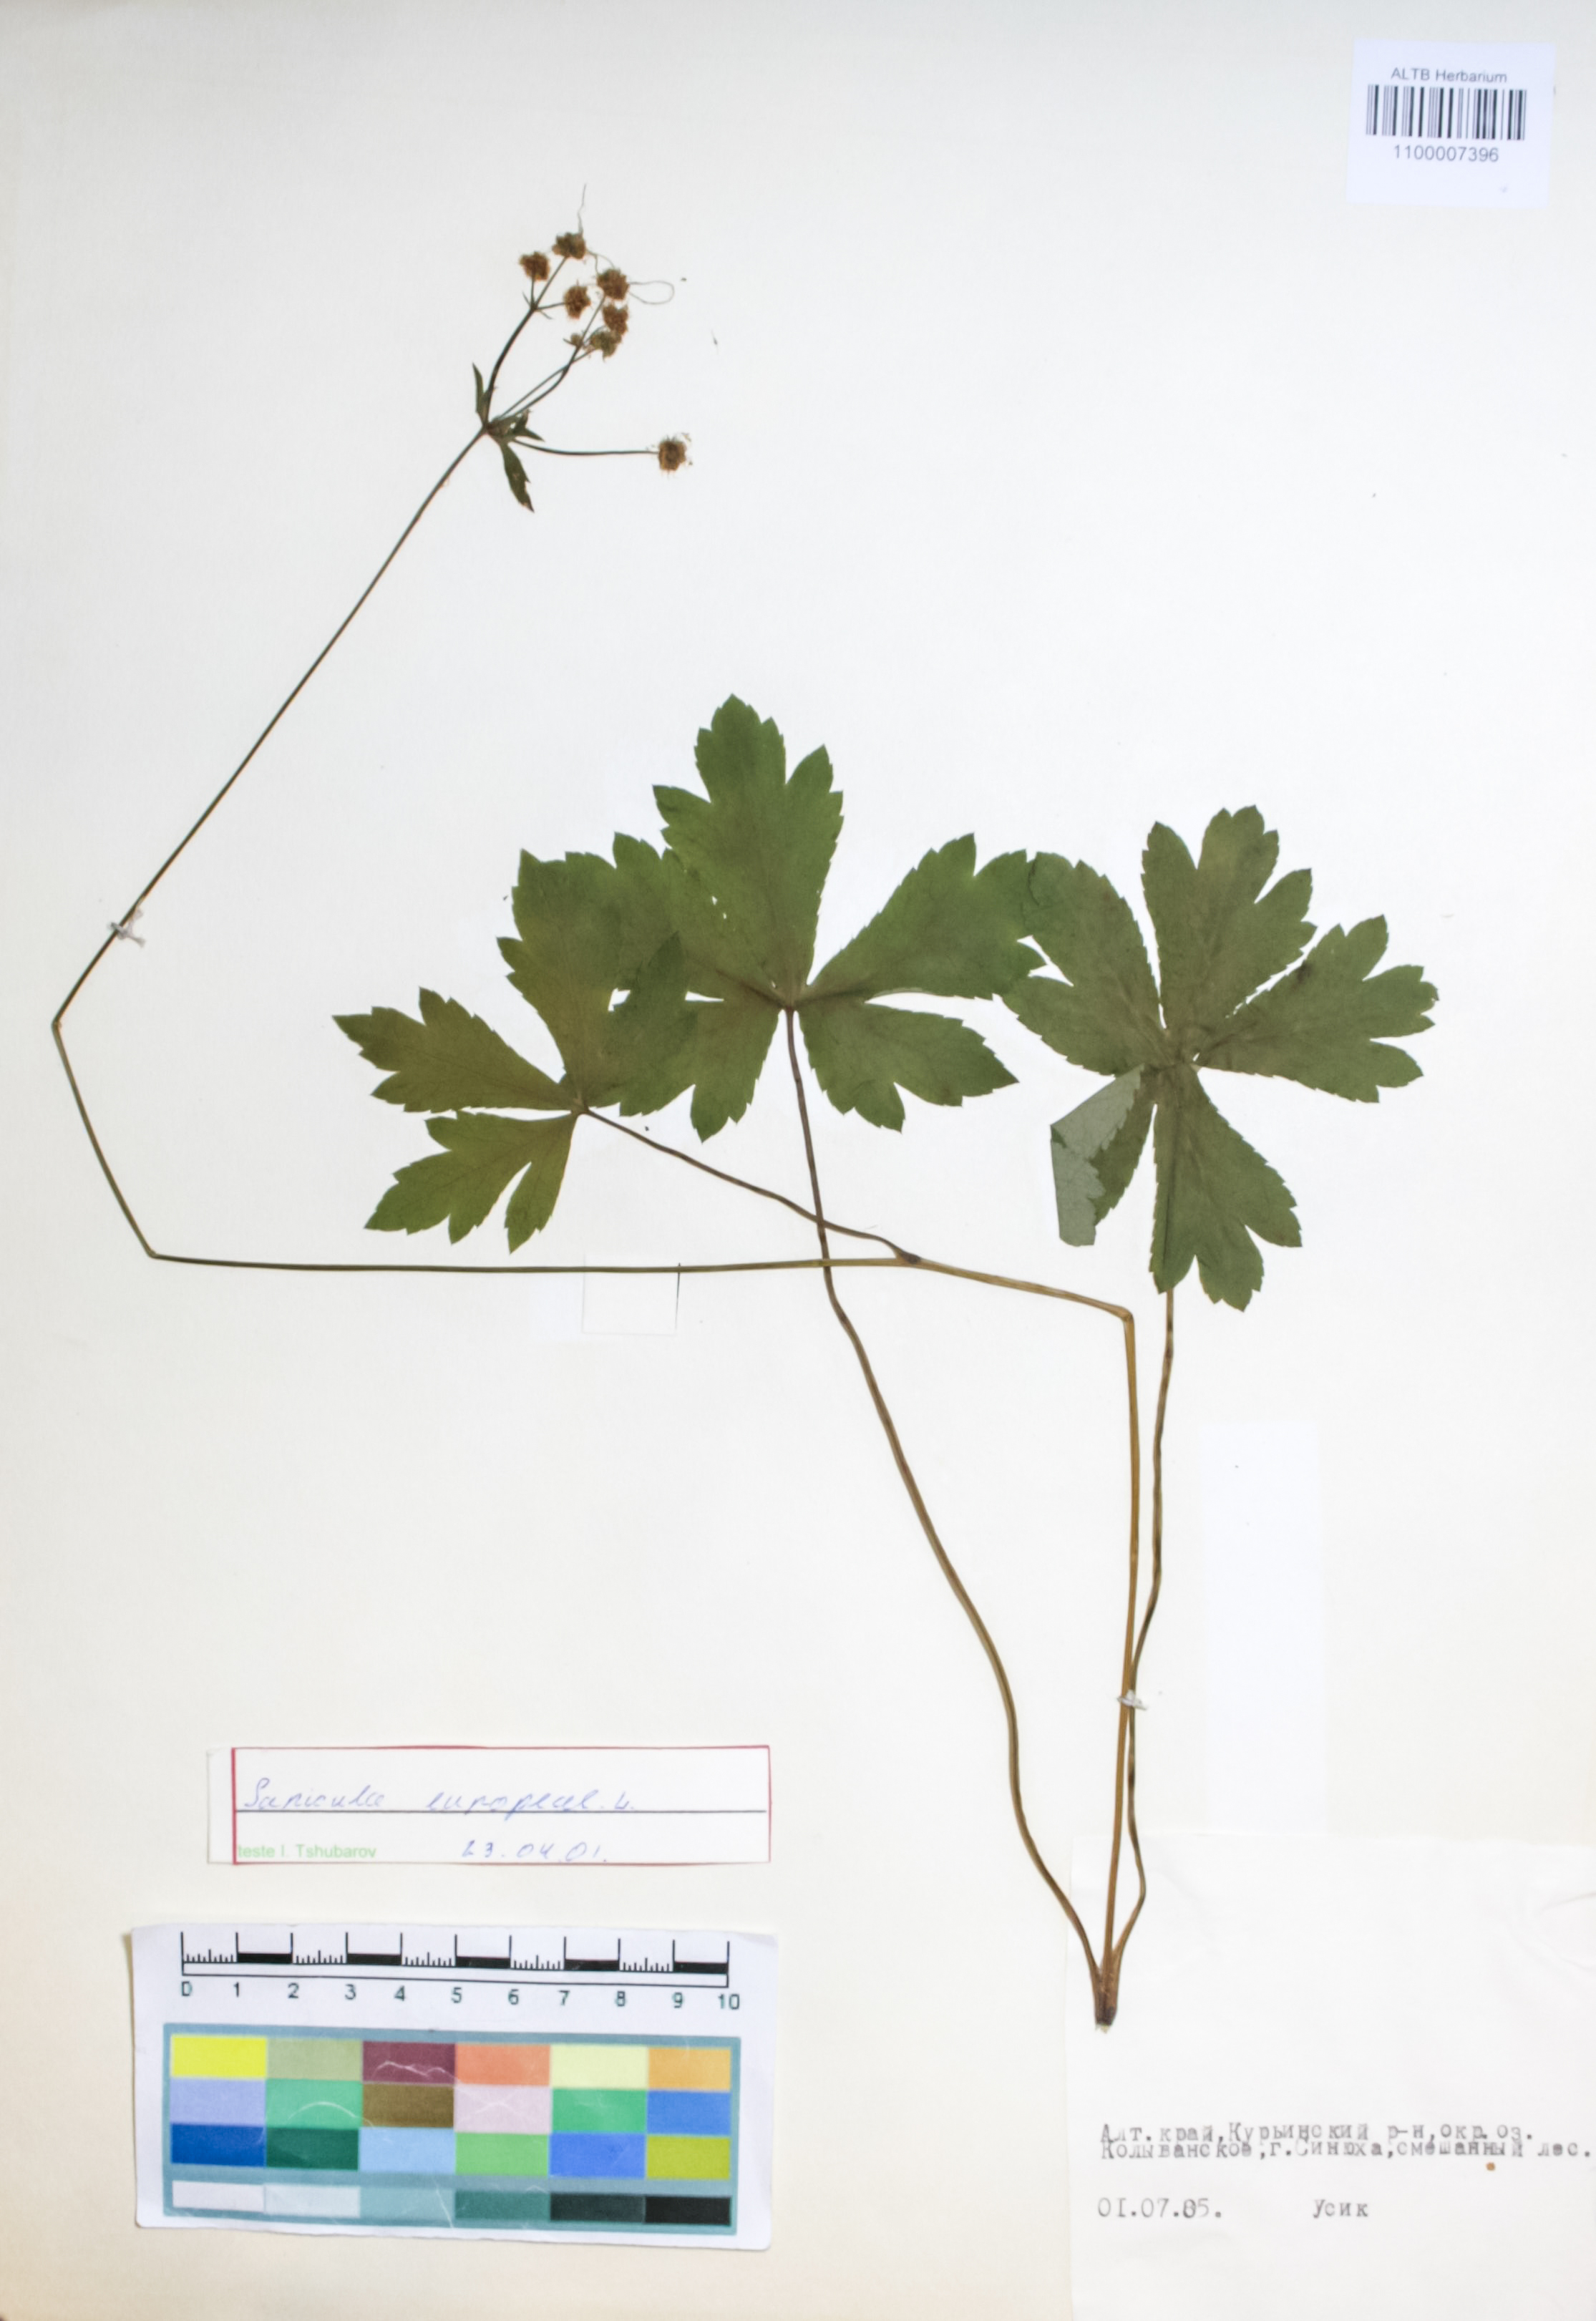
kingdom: Plantae
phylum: Tracheophyta
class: Magnoliopsida
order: Apiales
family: Apiaceae
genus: Sanicula
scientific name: Sanicula europaea
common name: Sanicle
